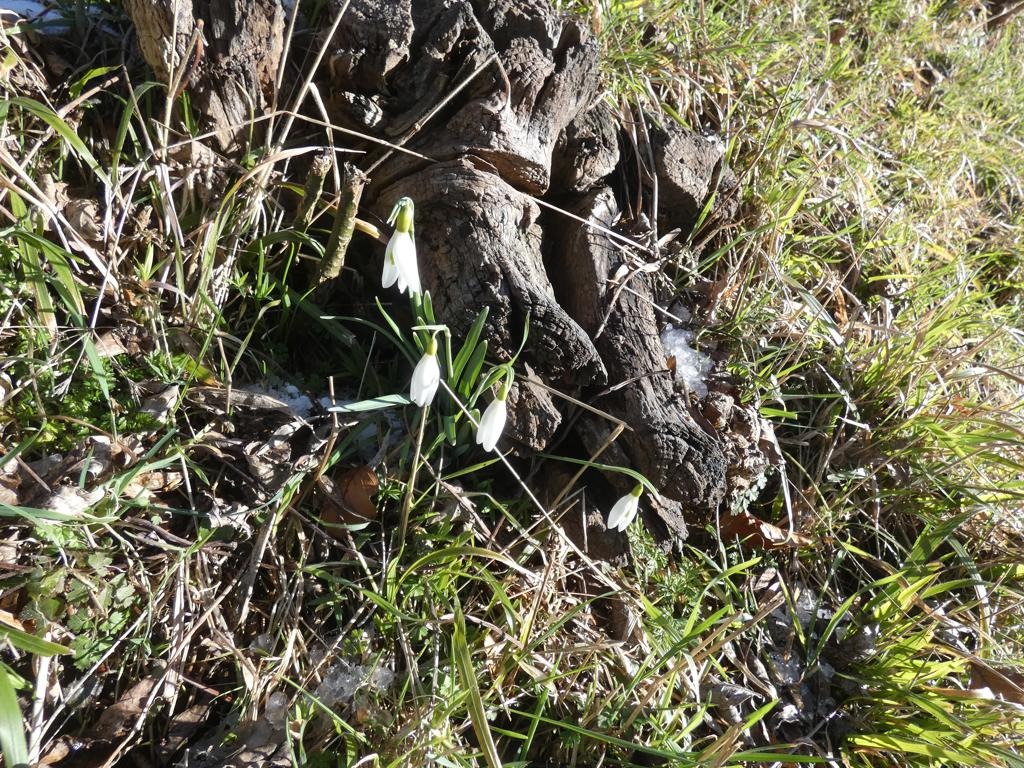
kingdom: Plantae
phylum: Tracheophyta
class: Liliopsida
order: Asparagales
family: Amaryllidaceae
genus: Galanthus
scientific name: Galanthus nivalis
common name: Vintergæk
